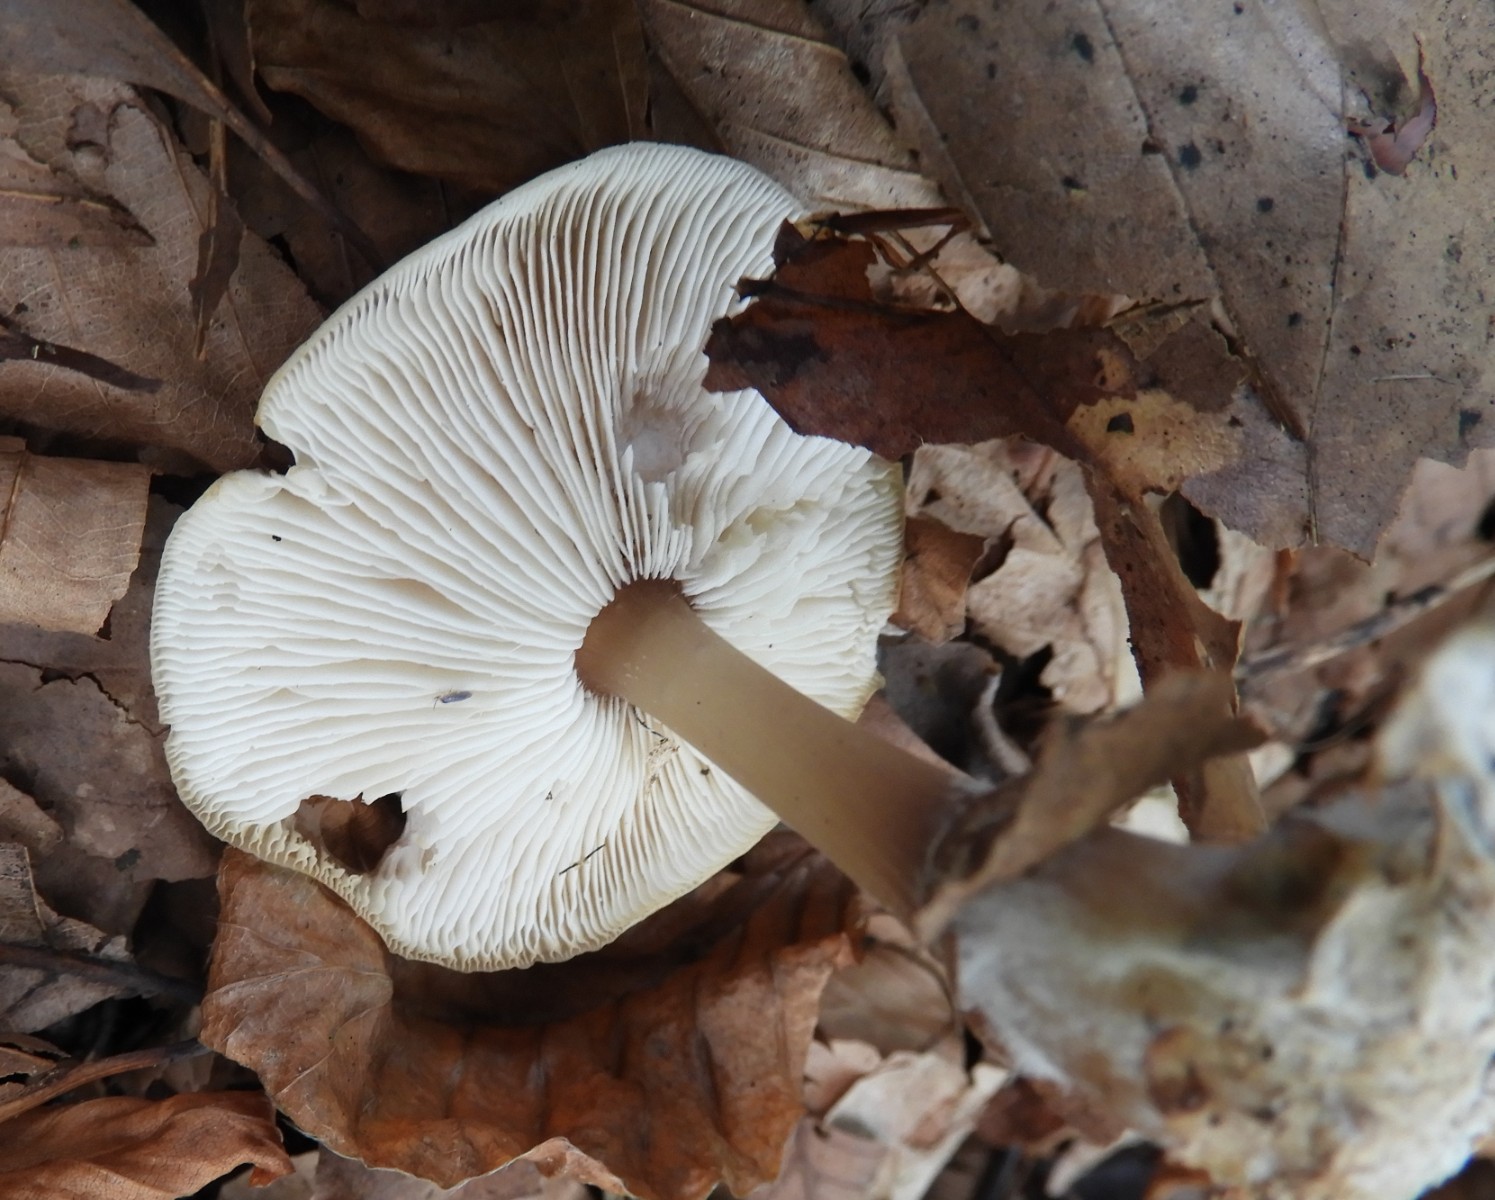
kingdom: Fungi
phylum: Basidiomycota
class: Agaricomycetes
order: Agaricales
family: Omphalotaceae
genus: Rhodocollybia
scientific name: Rhodocollybia asema
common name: horngrå fladhat
